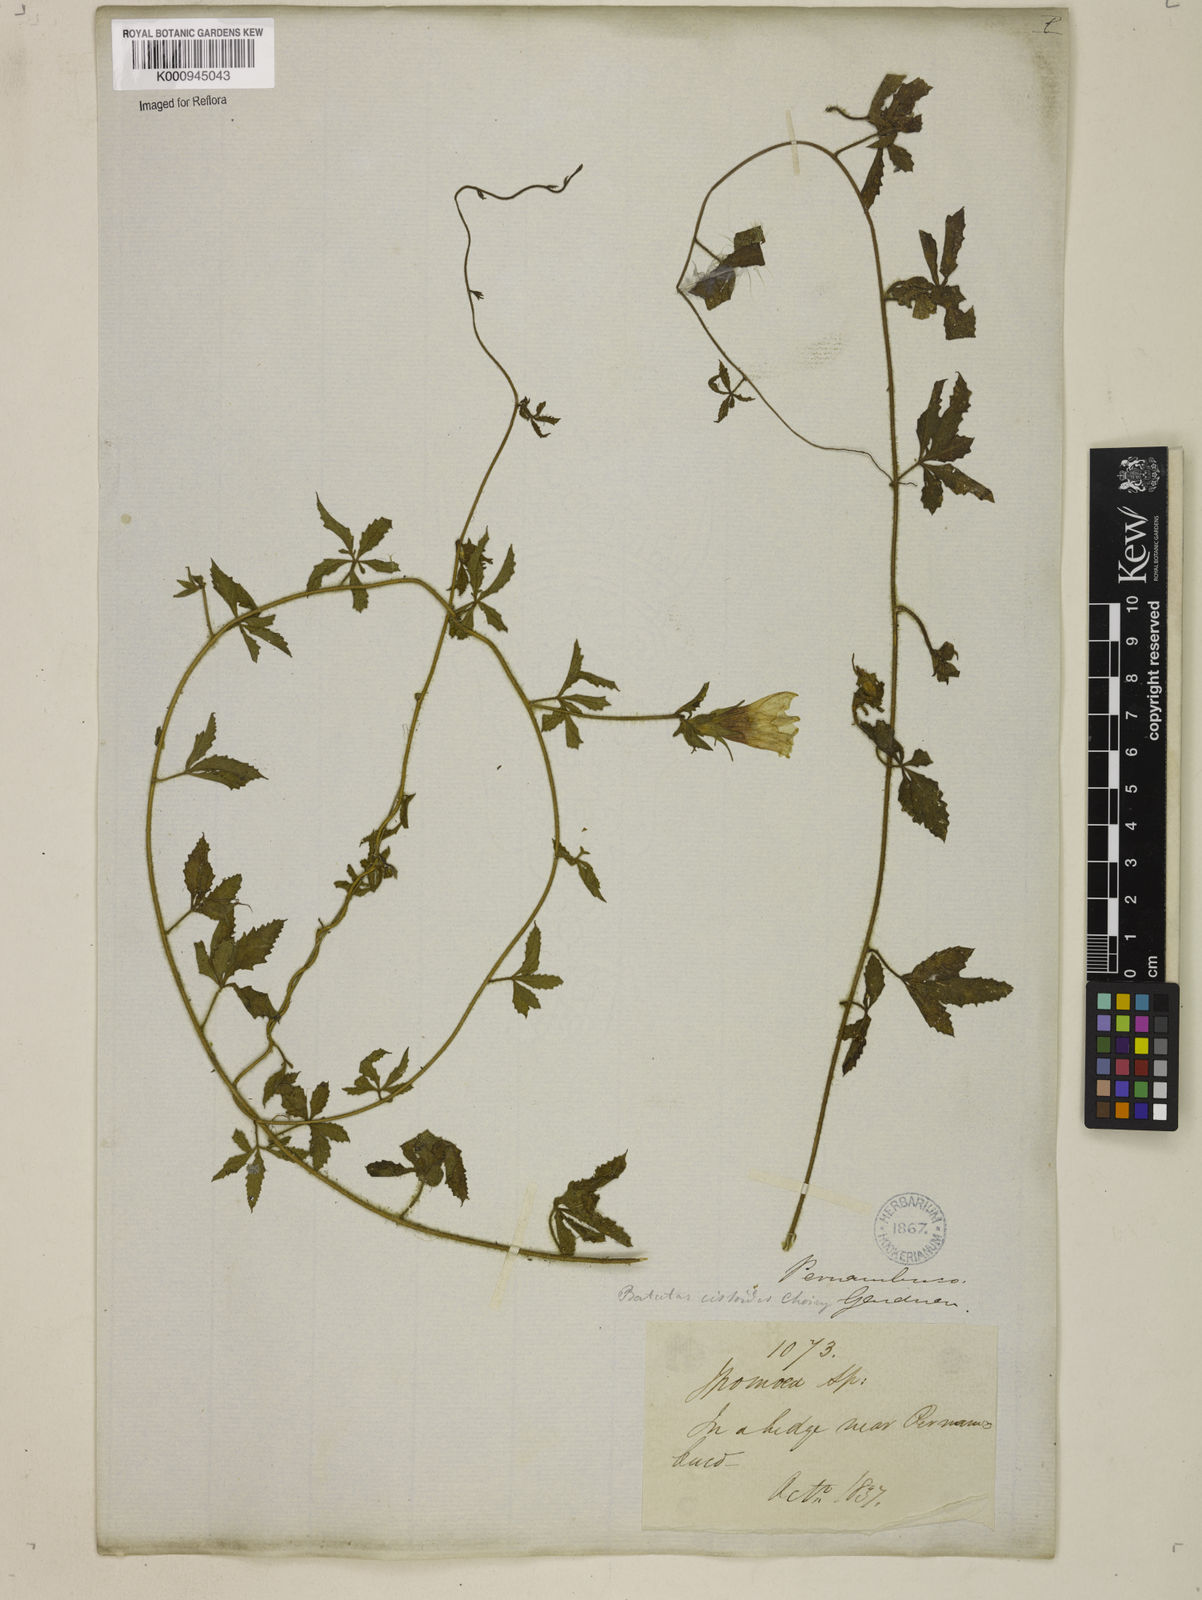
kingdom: Plantae
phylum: Tracheophyta
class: Magnoliopsida
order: Solanales
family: Convolvulaceae
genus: Distimake
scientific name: Distimake cissoides
